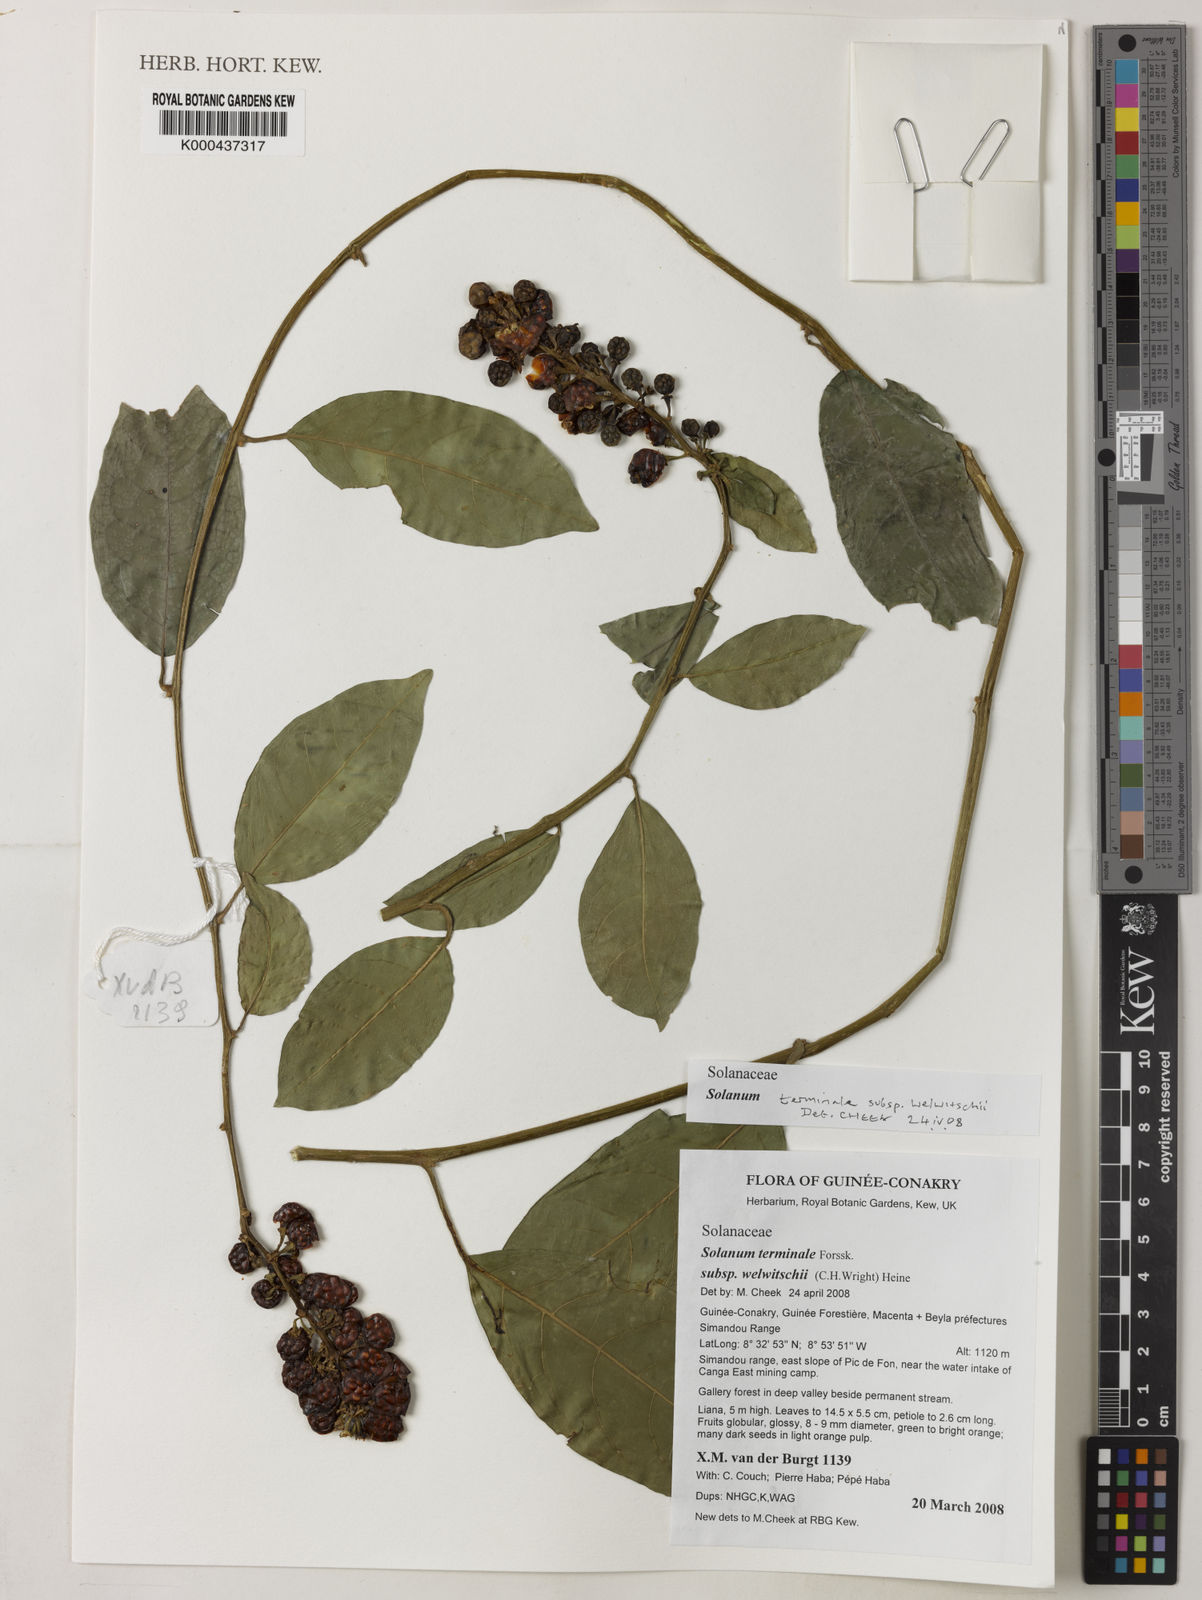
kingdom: Plantae
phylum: Tracheophyta
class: Magnoliopsida
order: Solanales
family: Solanaceae
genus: Solanum
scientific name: Solanum terminale
